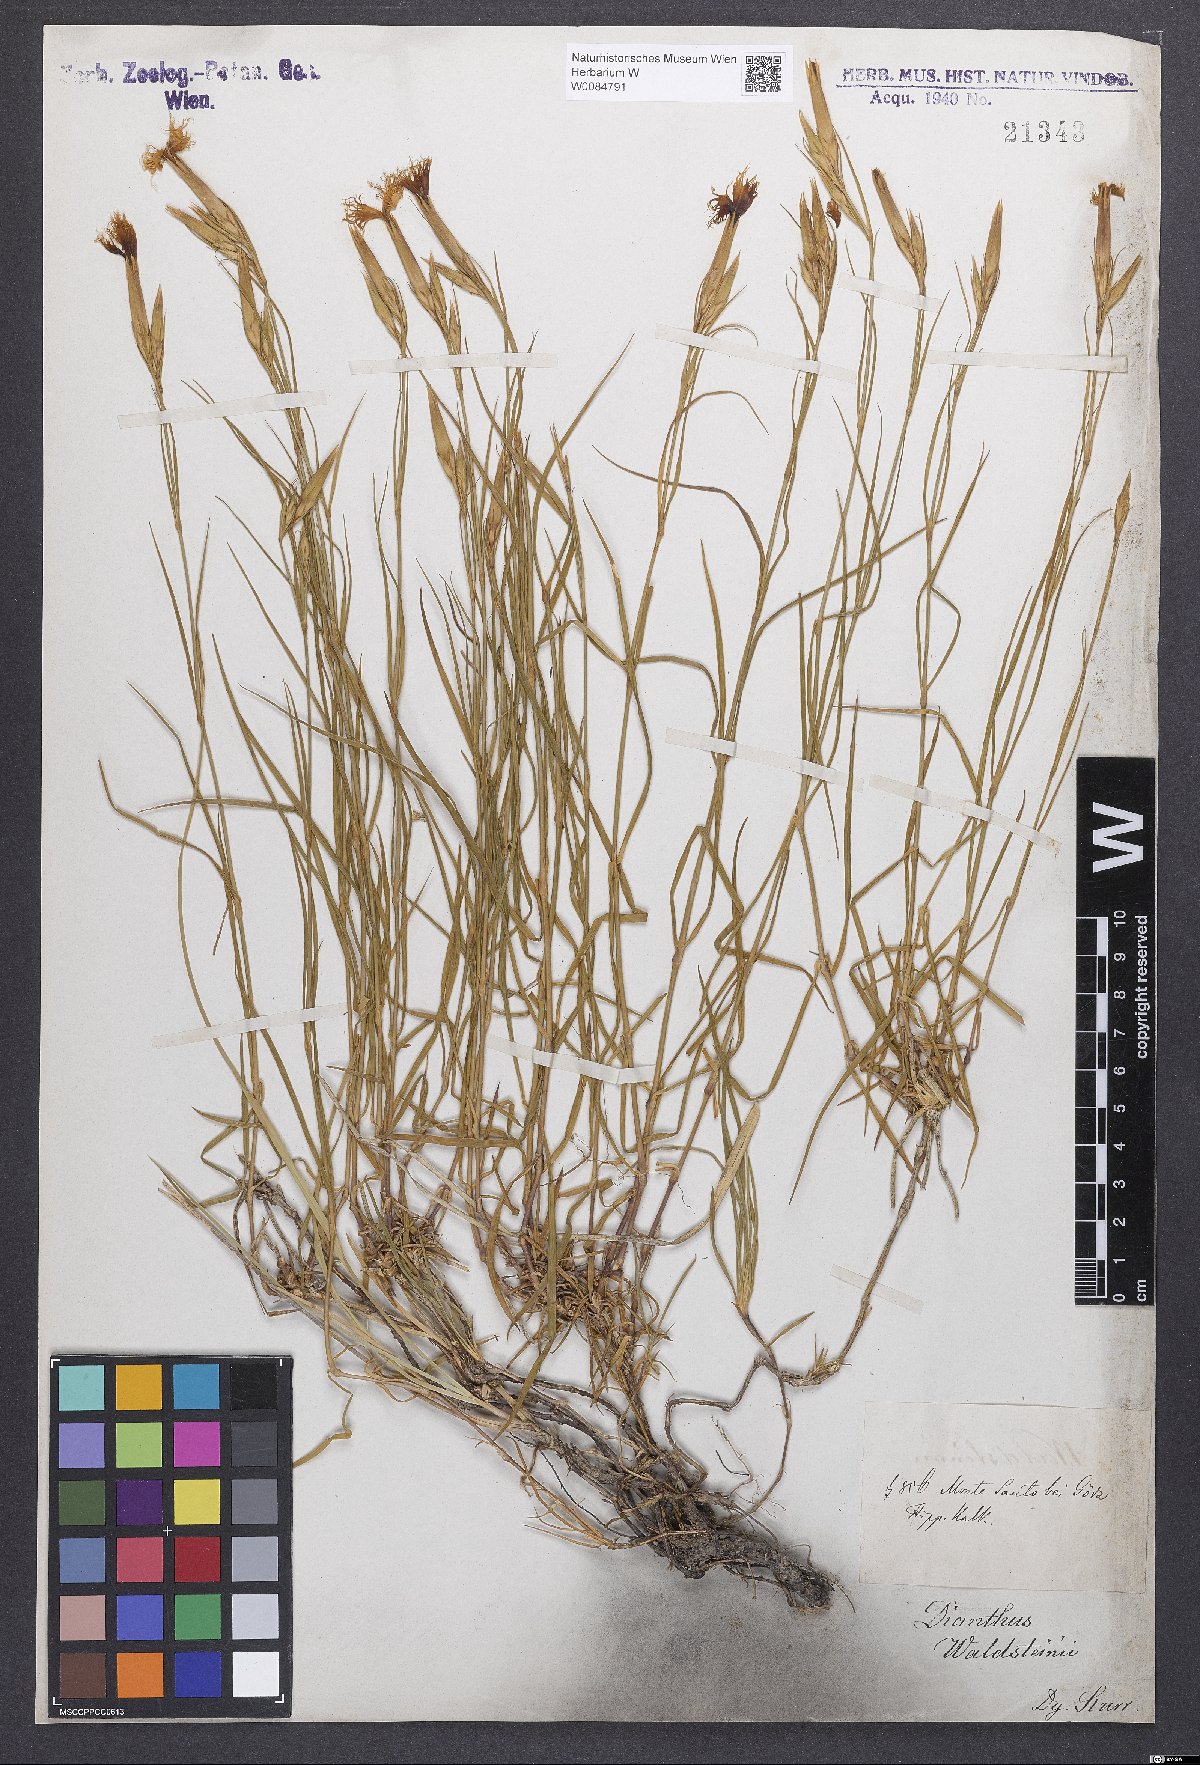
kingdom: Plantae
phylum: Tracheophyta
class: Magnoliopsida
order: Caryophyllales
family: Caryophyllaceae
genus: Dianthus
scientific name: Dianthus monspessulanus
